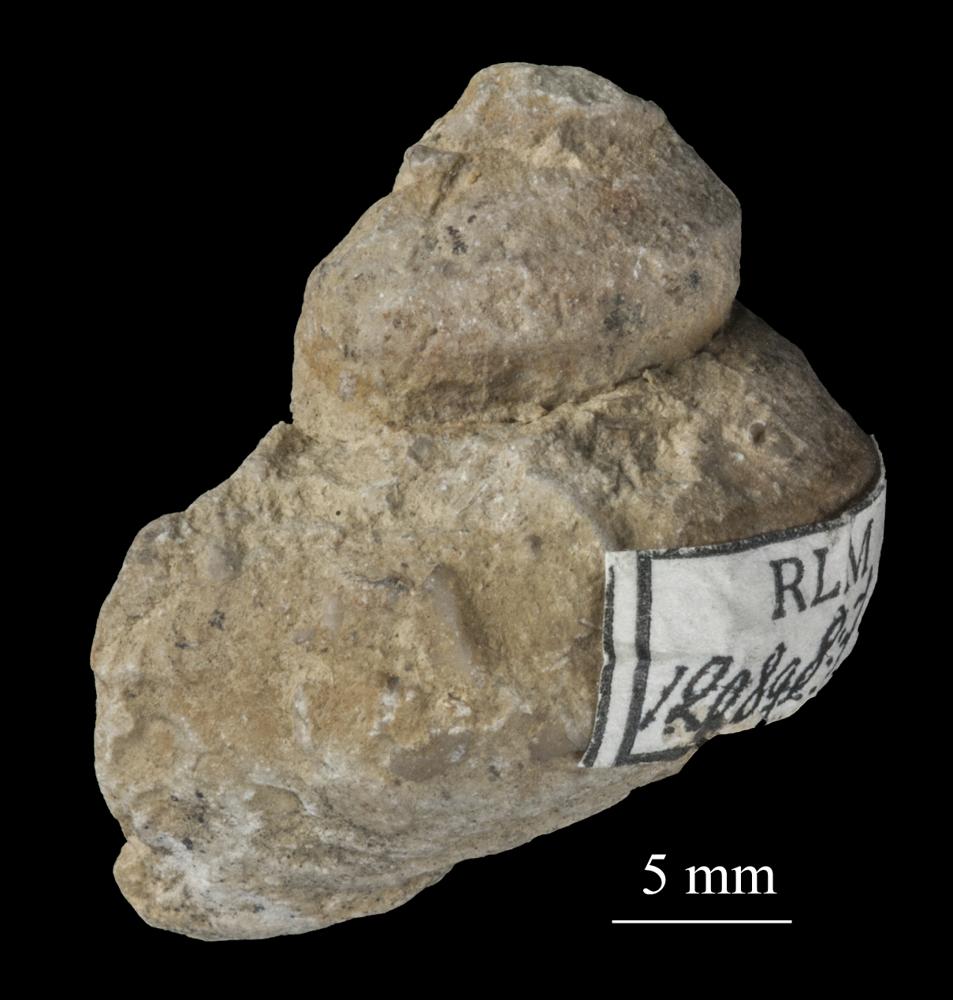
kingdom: Animalia
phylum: Mollusca
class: Gastropoda
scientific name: Gastropoda
